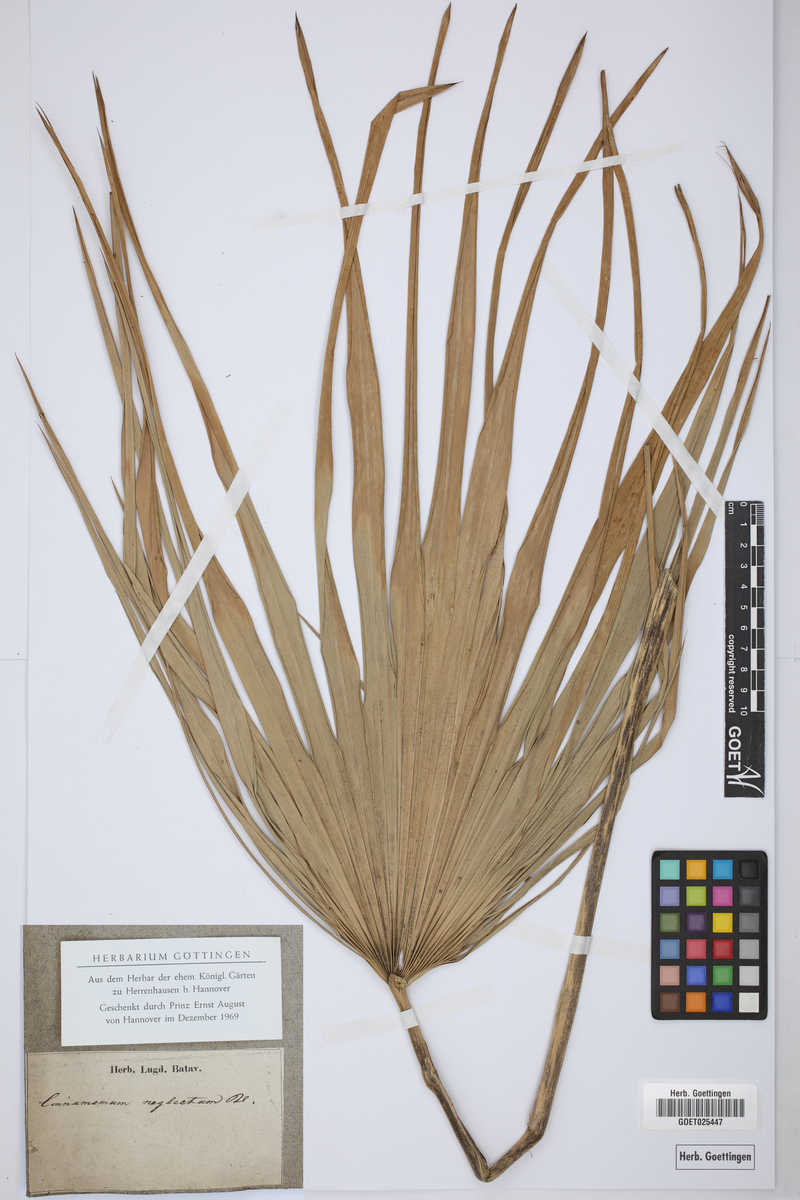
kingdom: Plantae
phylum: Tracheophyta
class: Liliopsida
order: Arecales
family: Arecaceae
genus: Chamaerops
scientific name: Chamaerops
